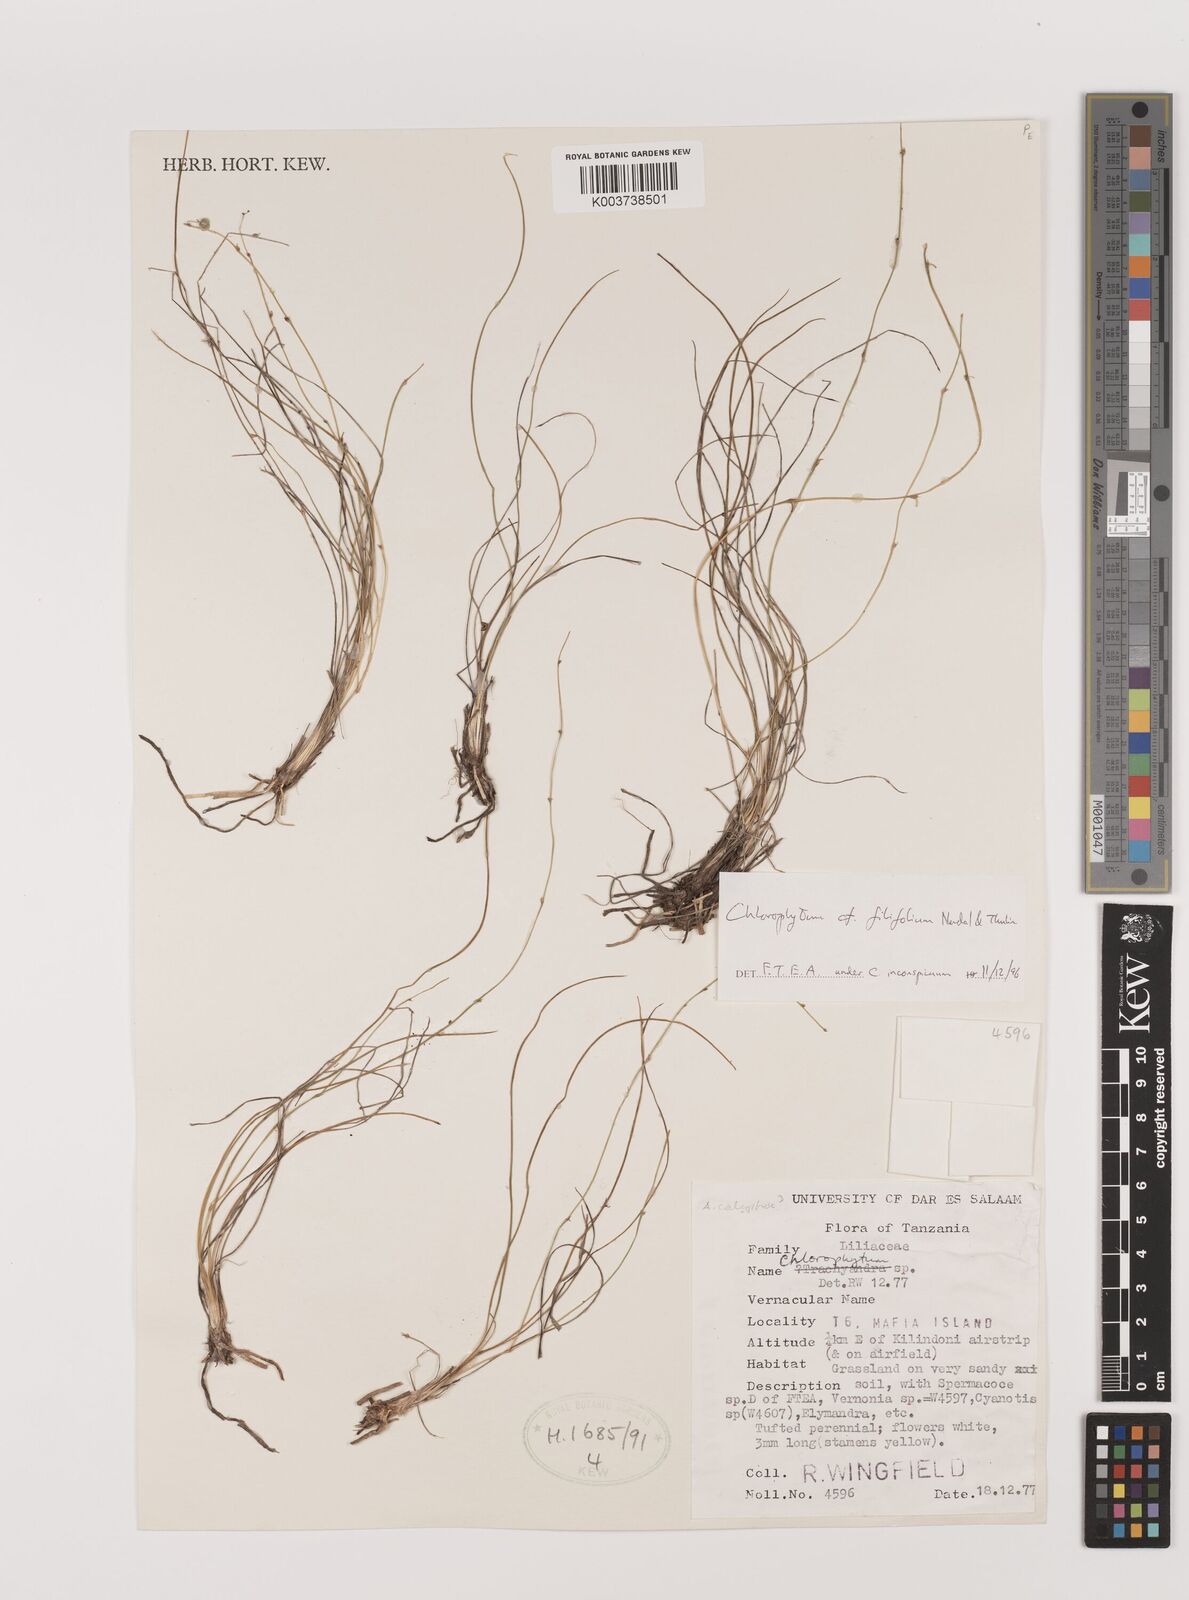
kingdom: Plantae
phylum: Tracheophyta
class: Liliopsida
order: Asparagales
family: Asparagaceae
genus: Chlorophytum
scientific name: Chlorophytum inconspicuum
